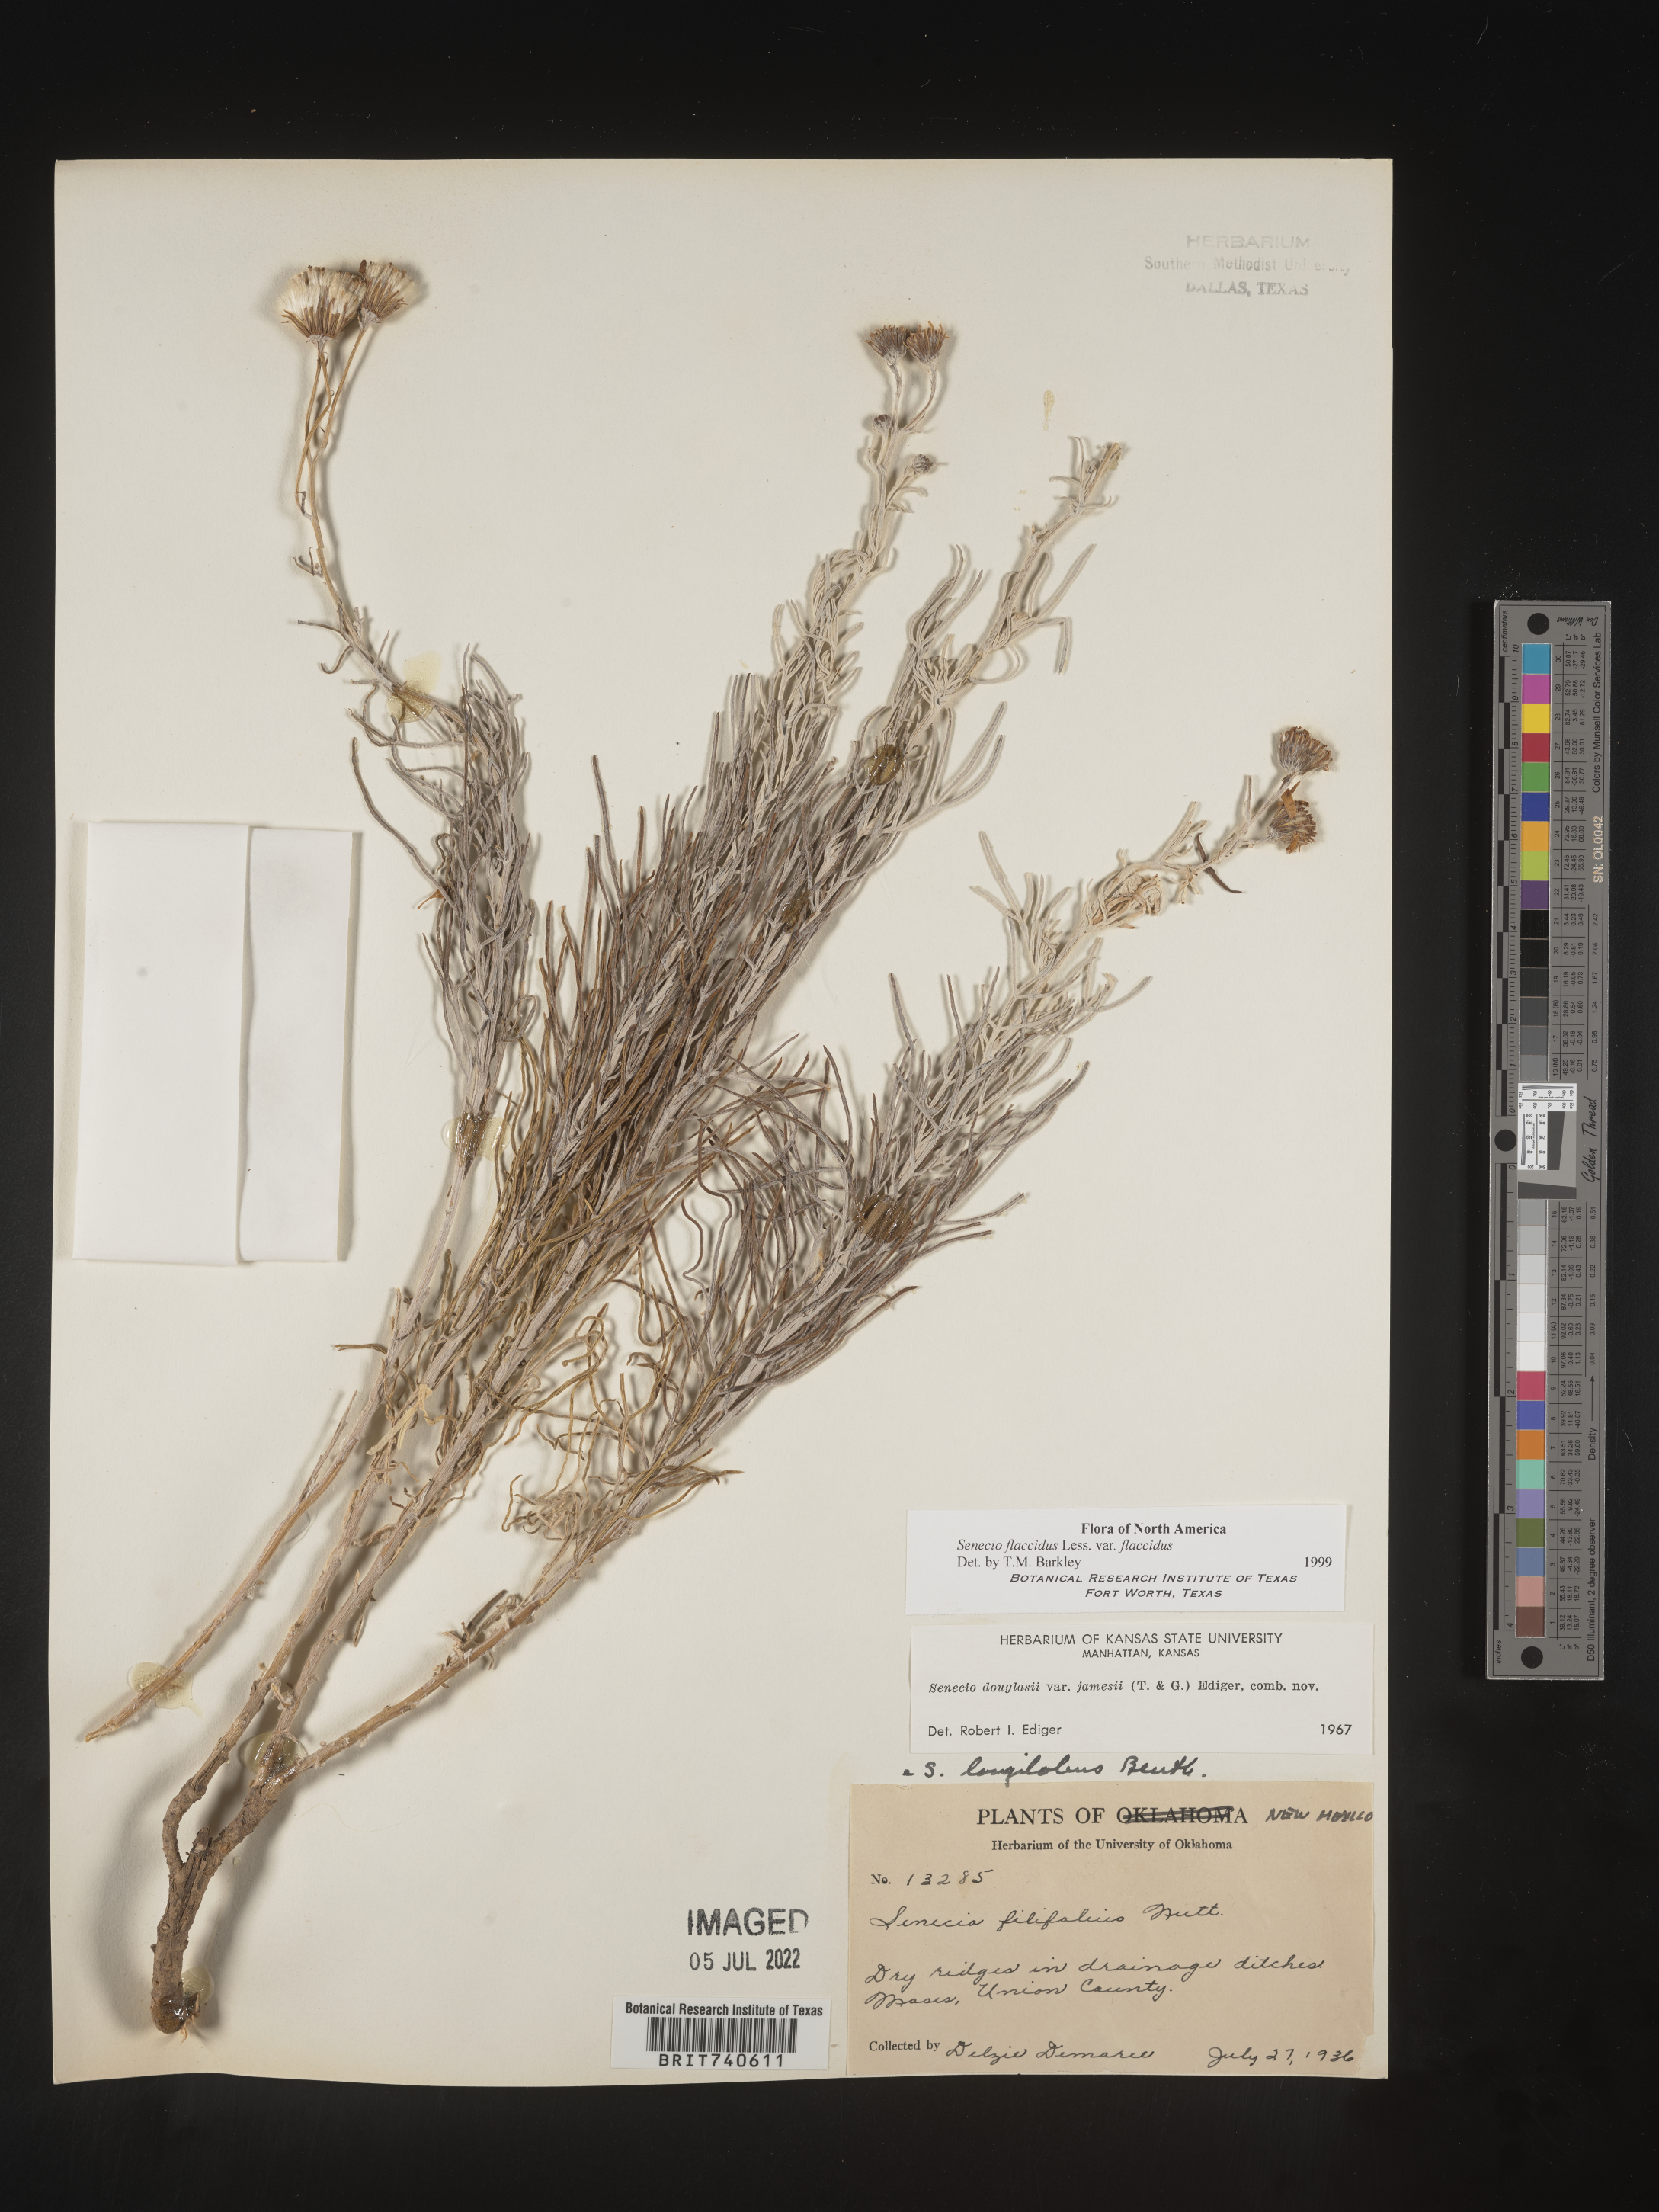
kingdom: Plantae
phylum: Tracheophyta
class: Magnoliopsida
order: Asterales
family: Asteraceae
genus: Senecio
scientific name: Senecio flaccidus
